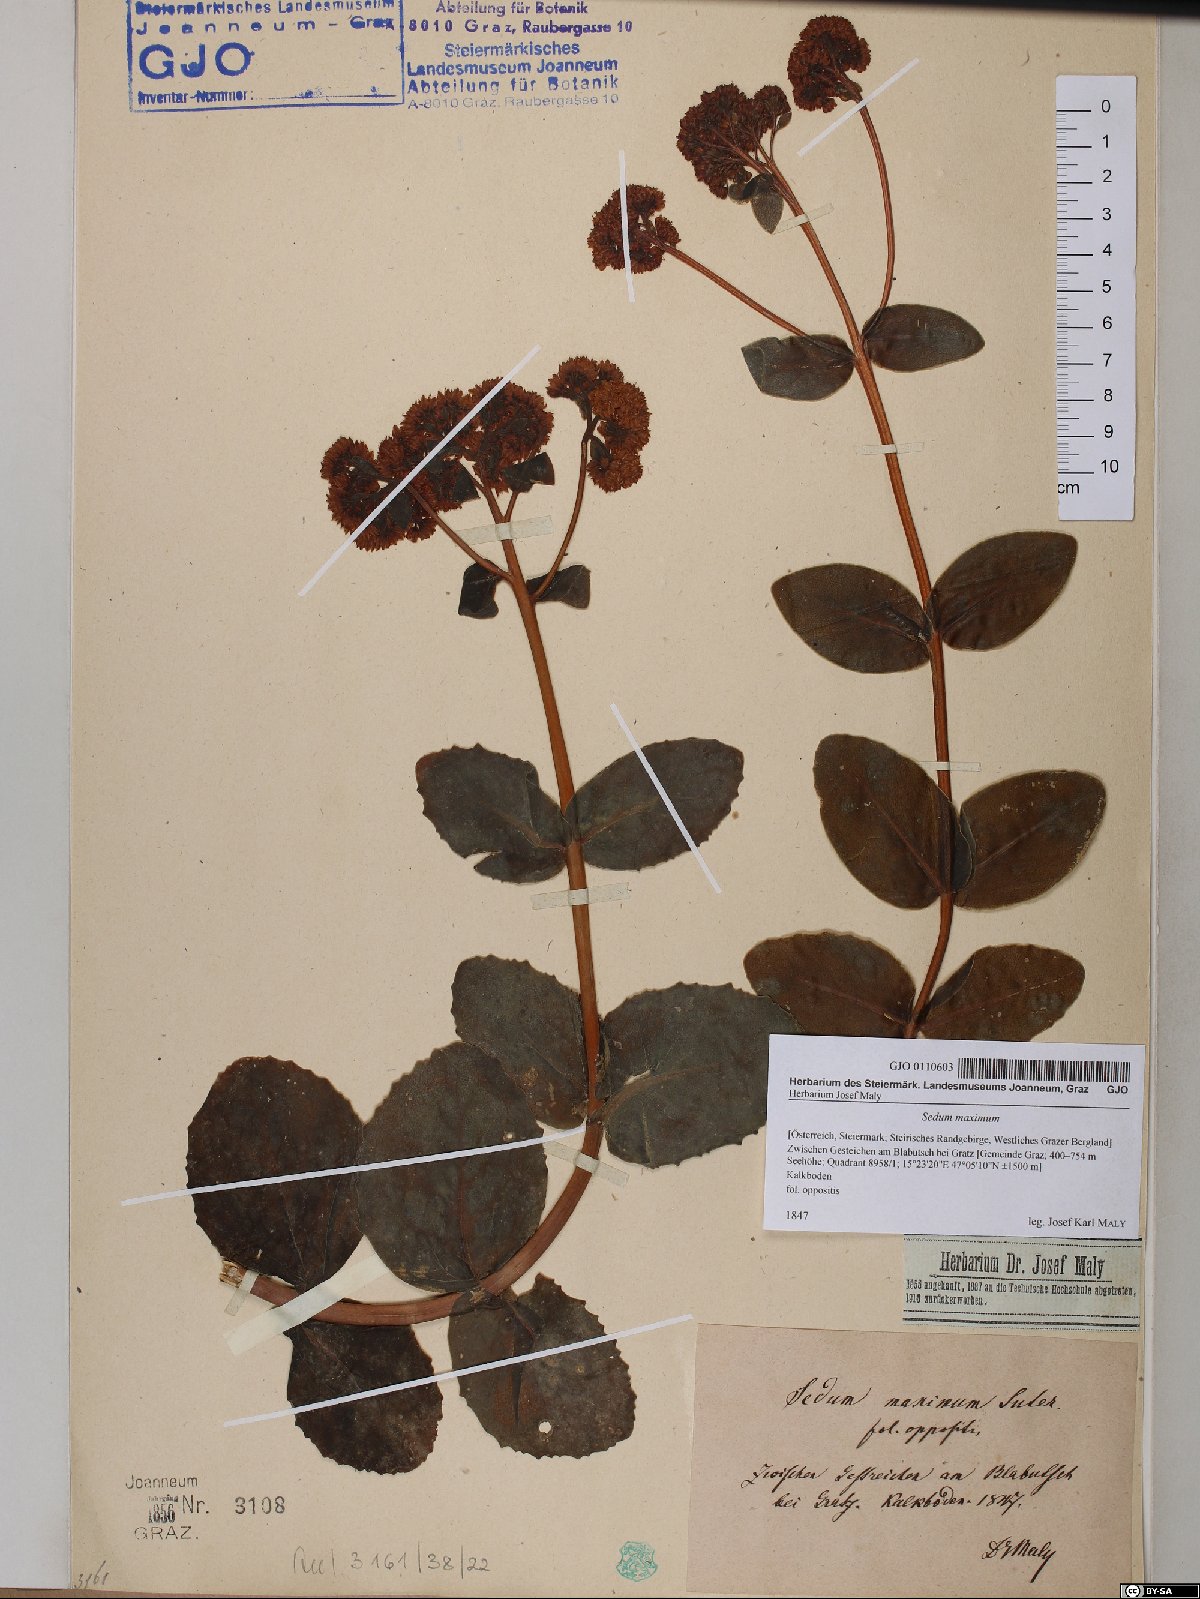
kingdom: Plantae
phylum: Tracheophyta
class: Magnoliopsida
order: Saxifragales
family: Crassulaceae
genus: Hylotelephium
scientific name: Hylotelephium maximum
